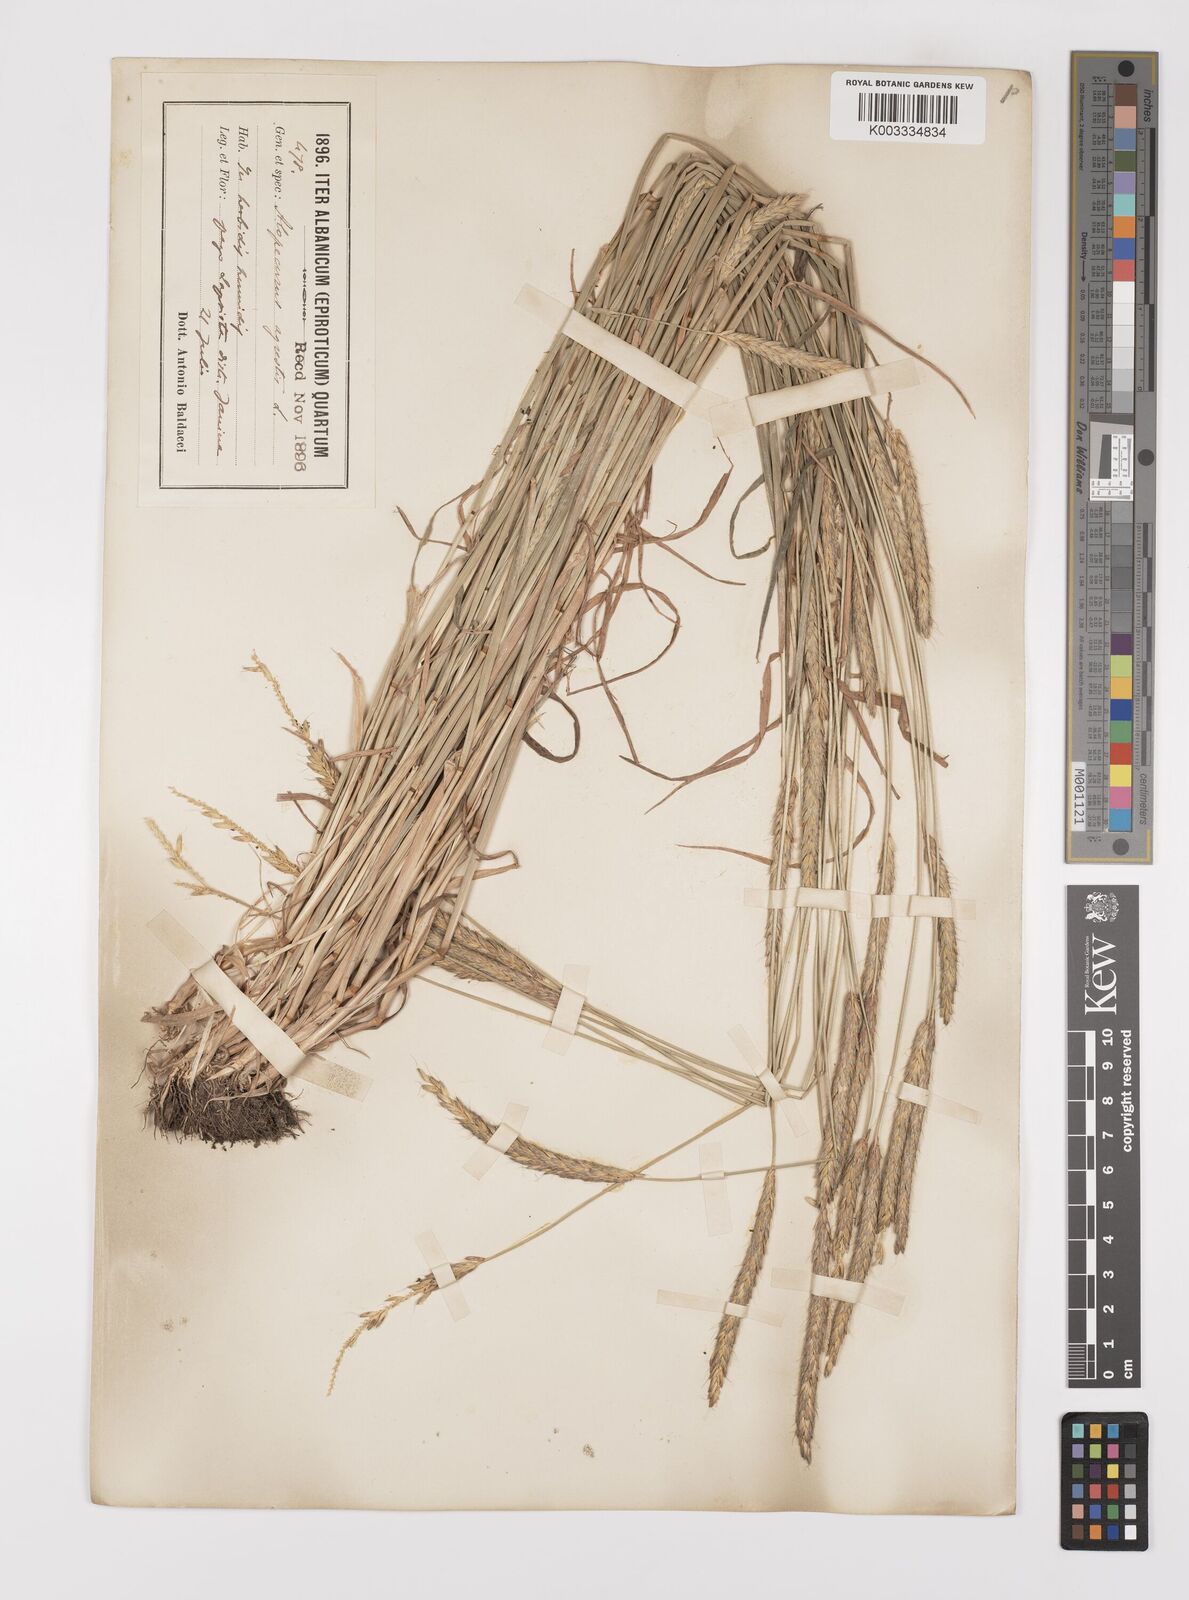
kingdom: Plantae
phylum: Tracheophyta
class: Liliopsida
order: Poales
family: Poaceae
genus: Alopecurus
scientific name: Alopecurus myosuroides
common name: Black-grass
